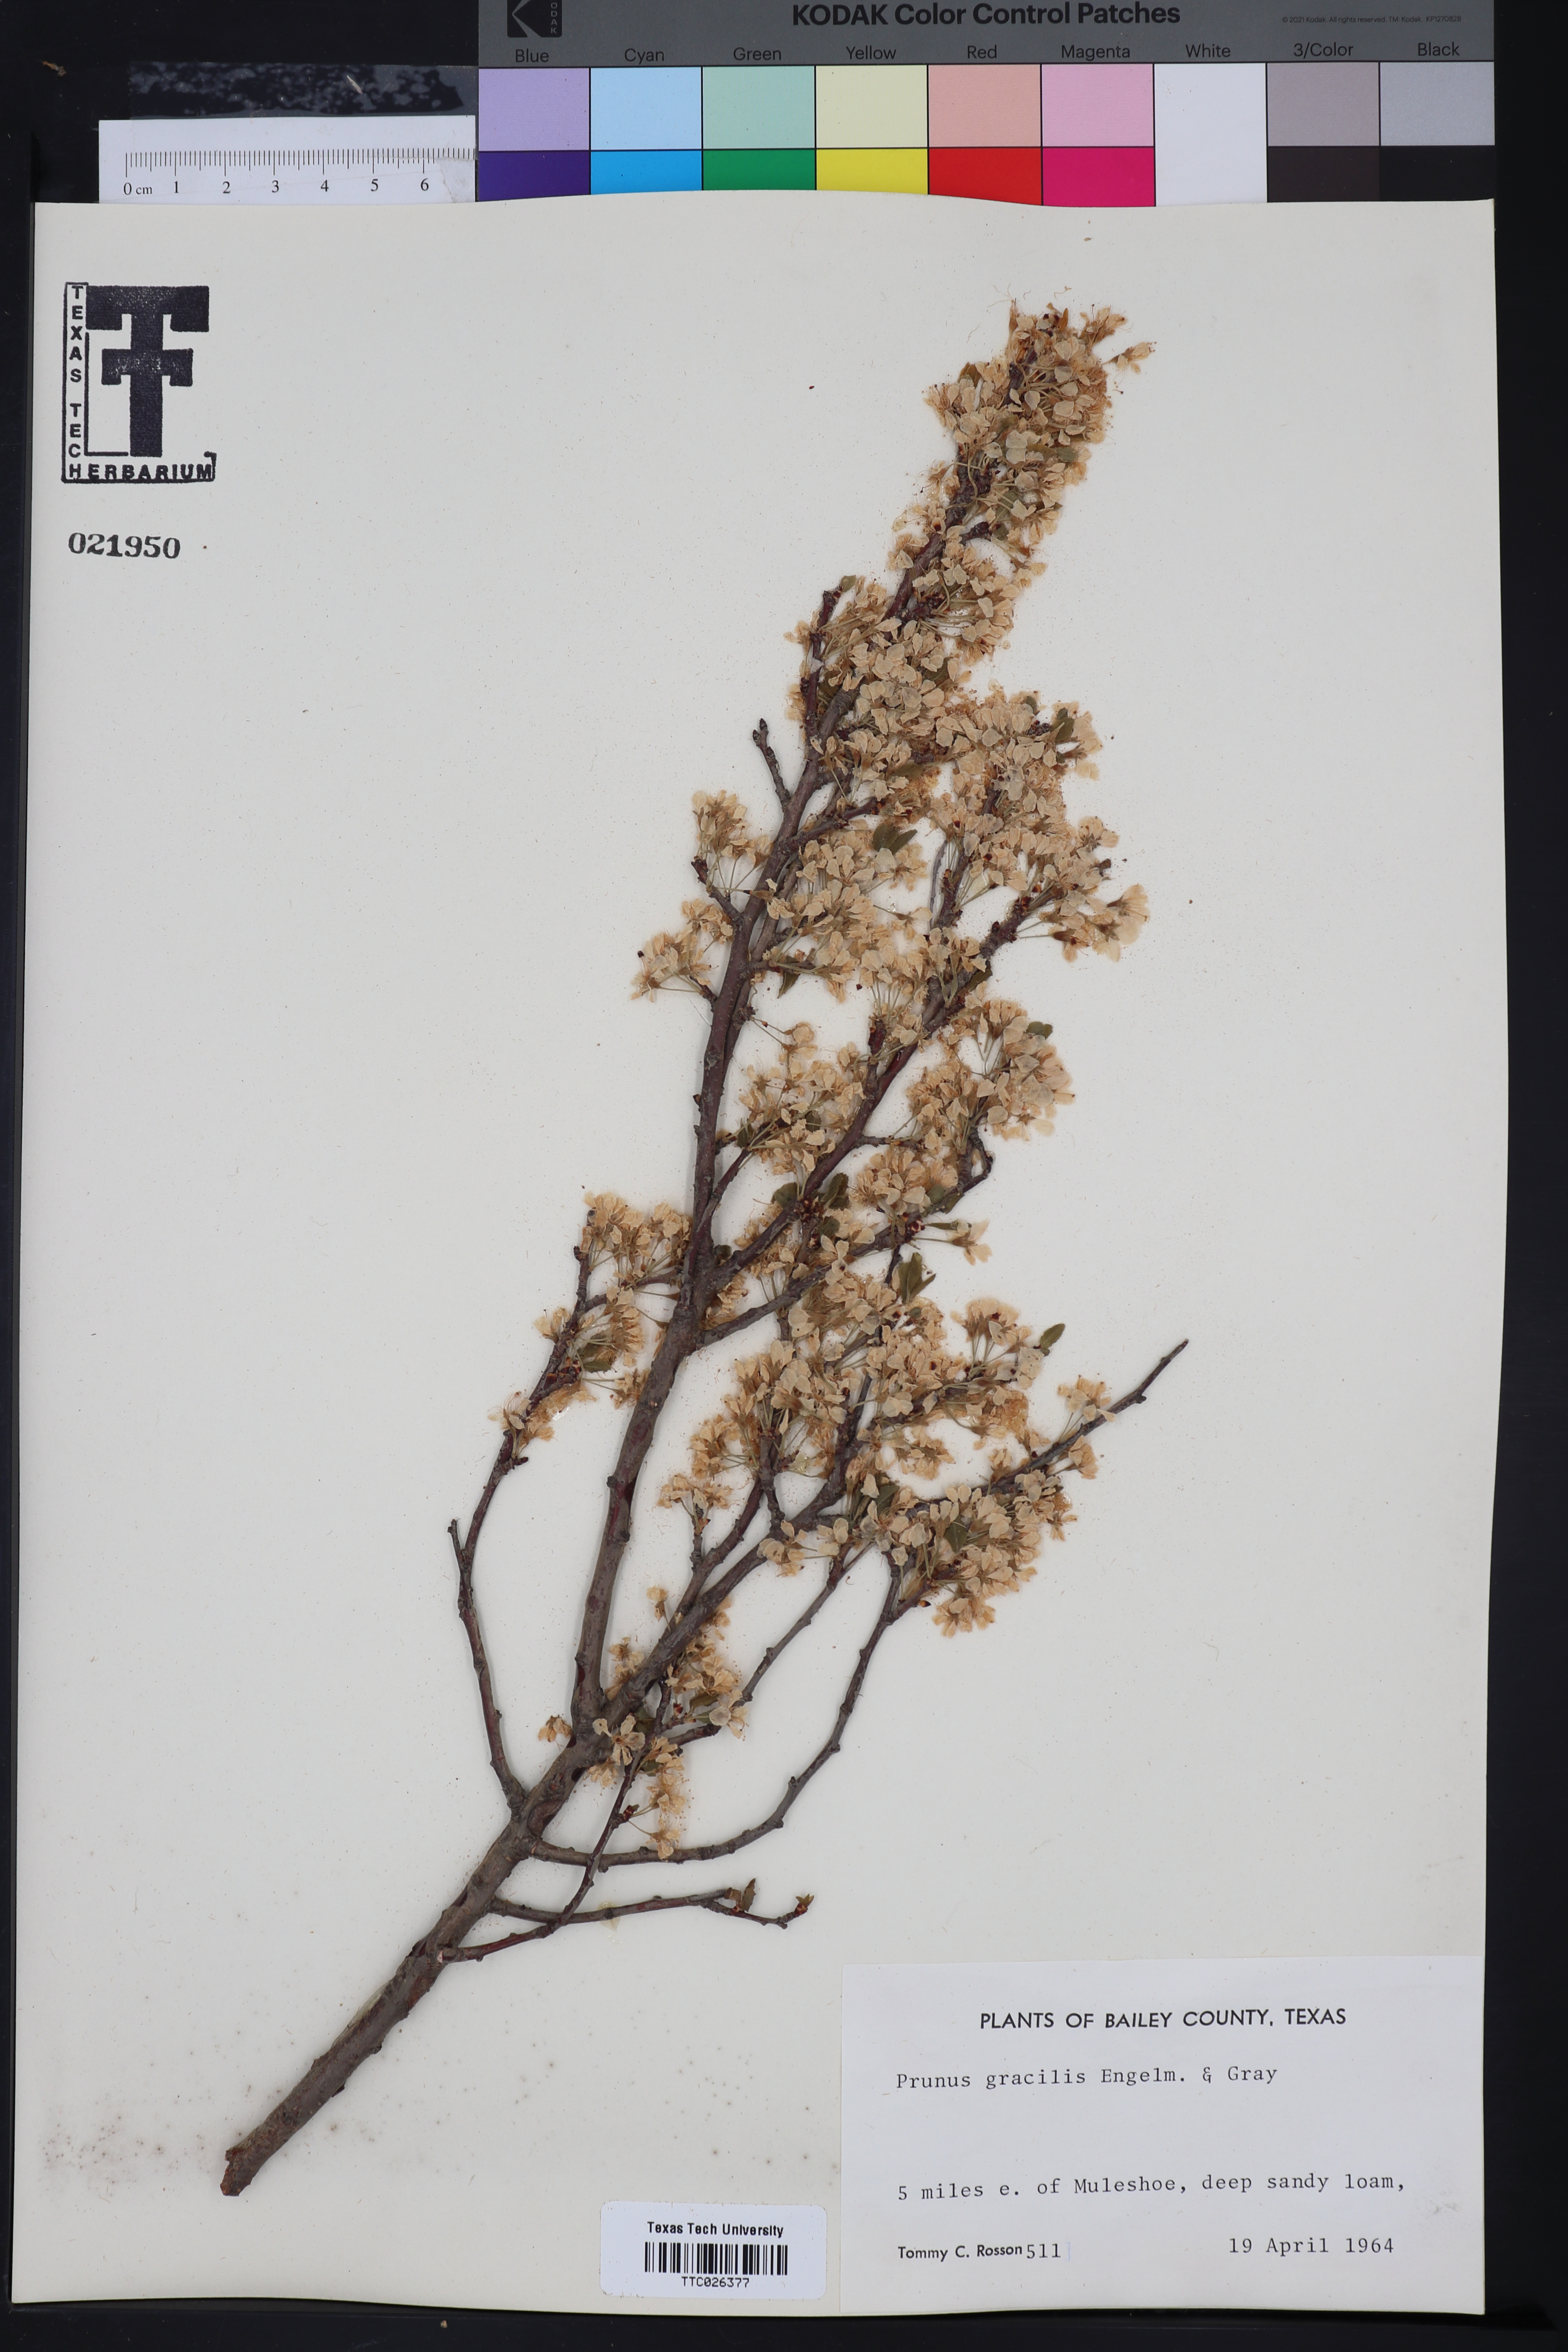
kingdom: Plantae
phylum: Tracheophyta
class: Magnoliopsida
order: Rosales
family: Rosaceae
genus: Prunus
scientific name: Prunus gracilis
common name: Oklahoma plum
